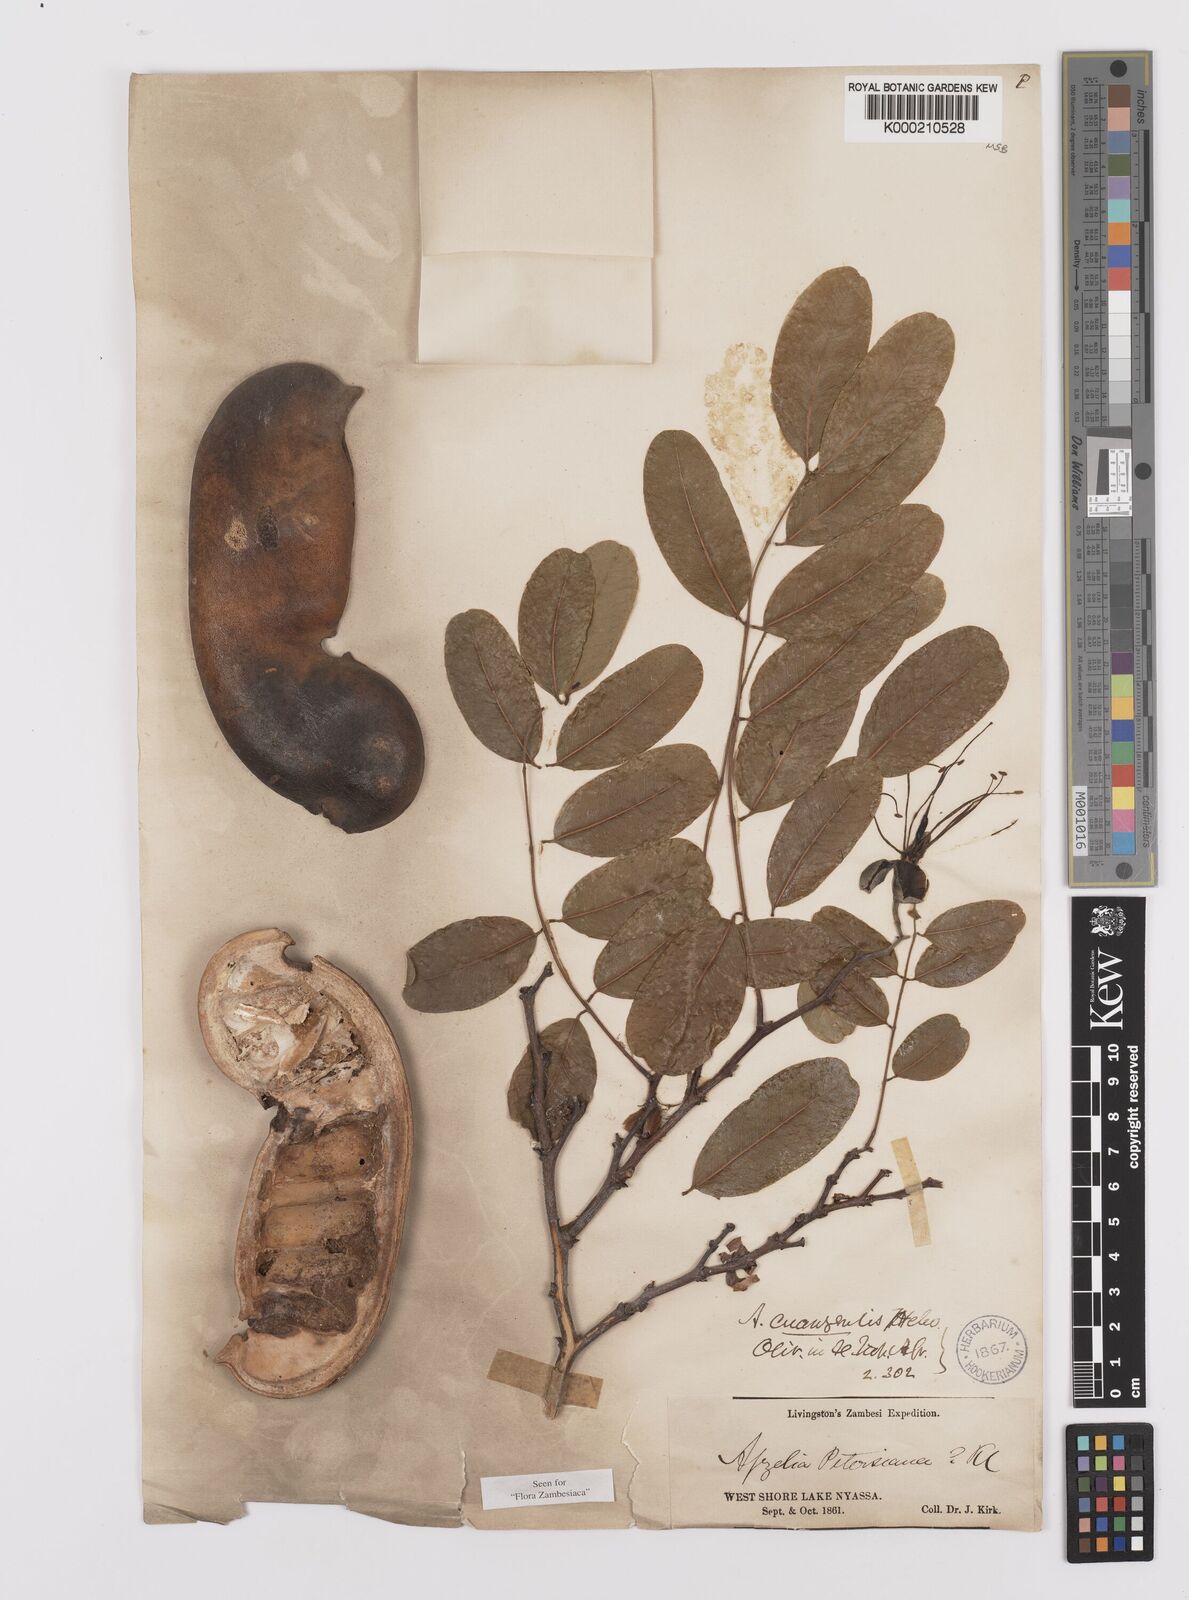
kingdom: Plantae
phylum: Tracheophyta
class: Magnoliopsida
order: Fabales
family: Fabaceae
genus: Afzelia
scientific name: Afzelia quanzensis
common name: Pod mahogany
